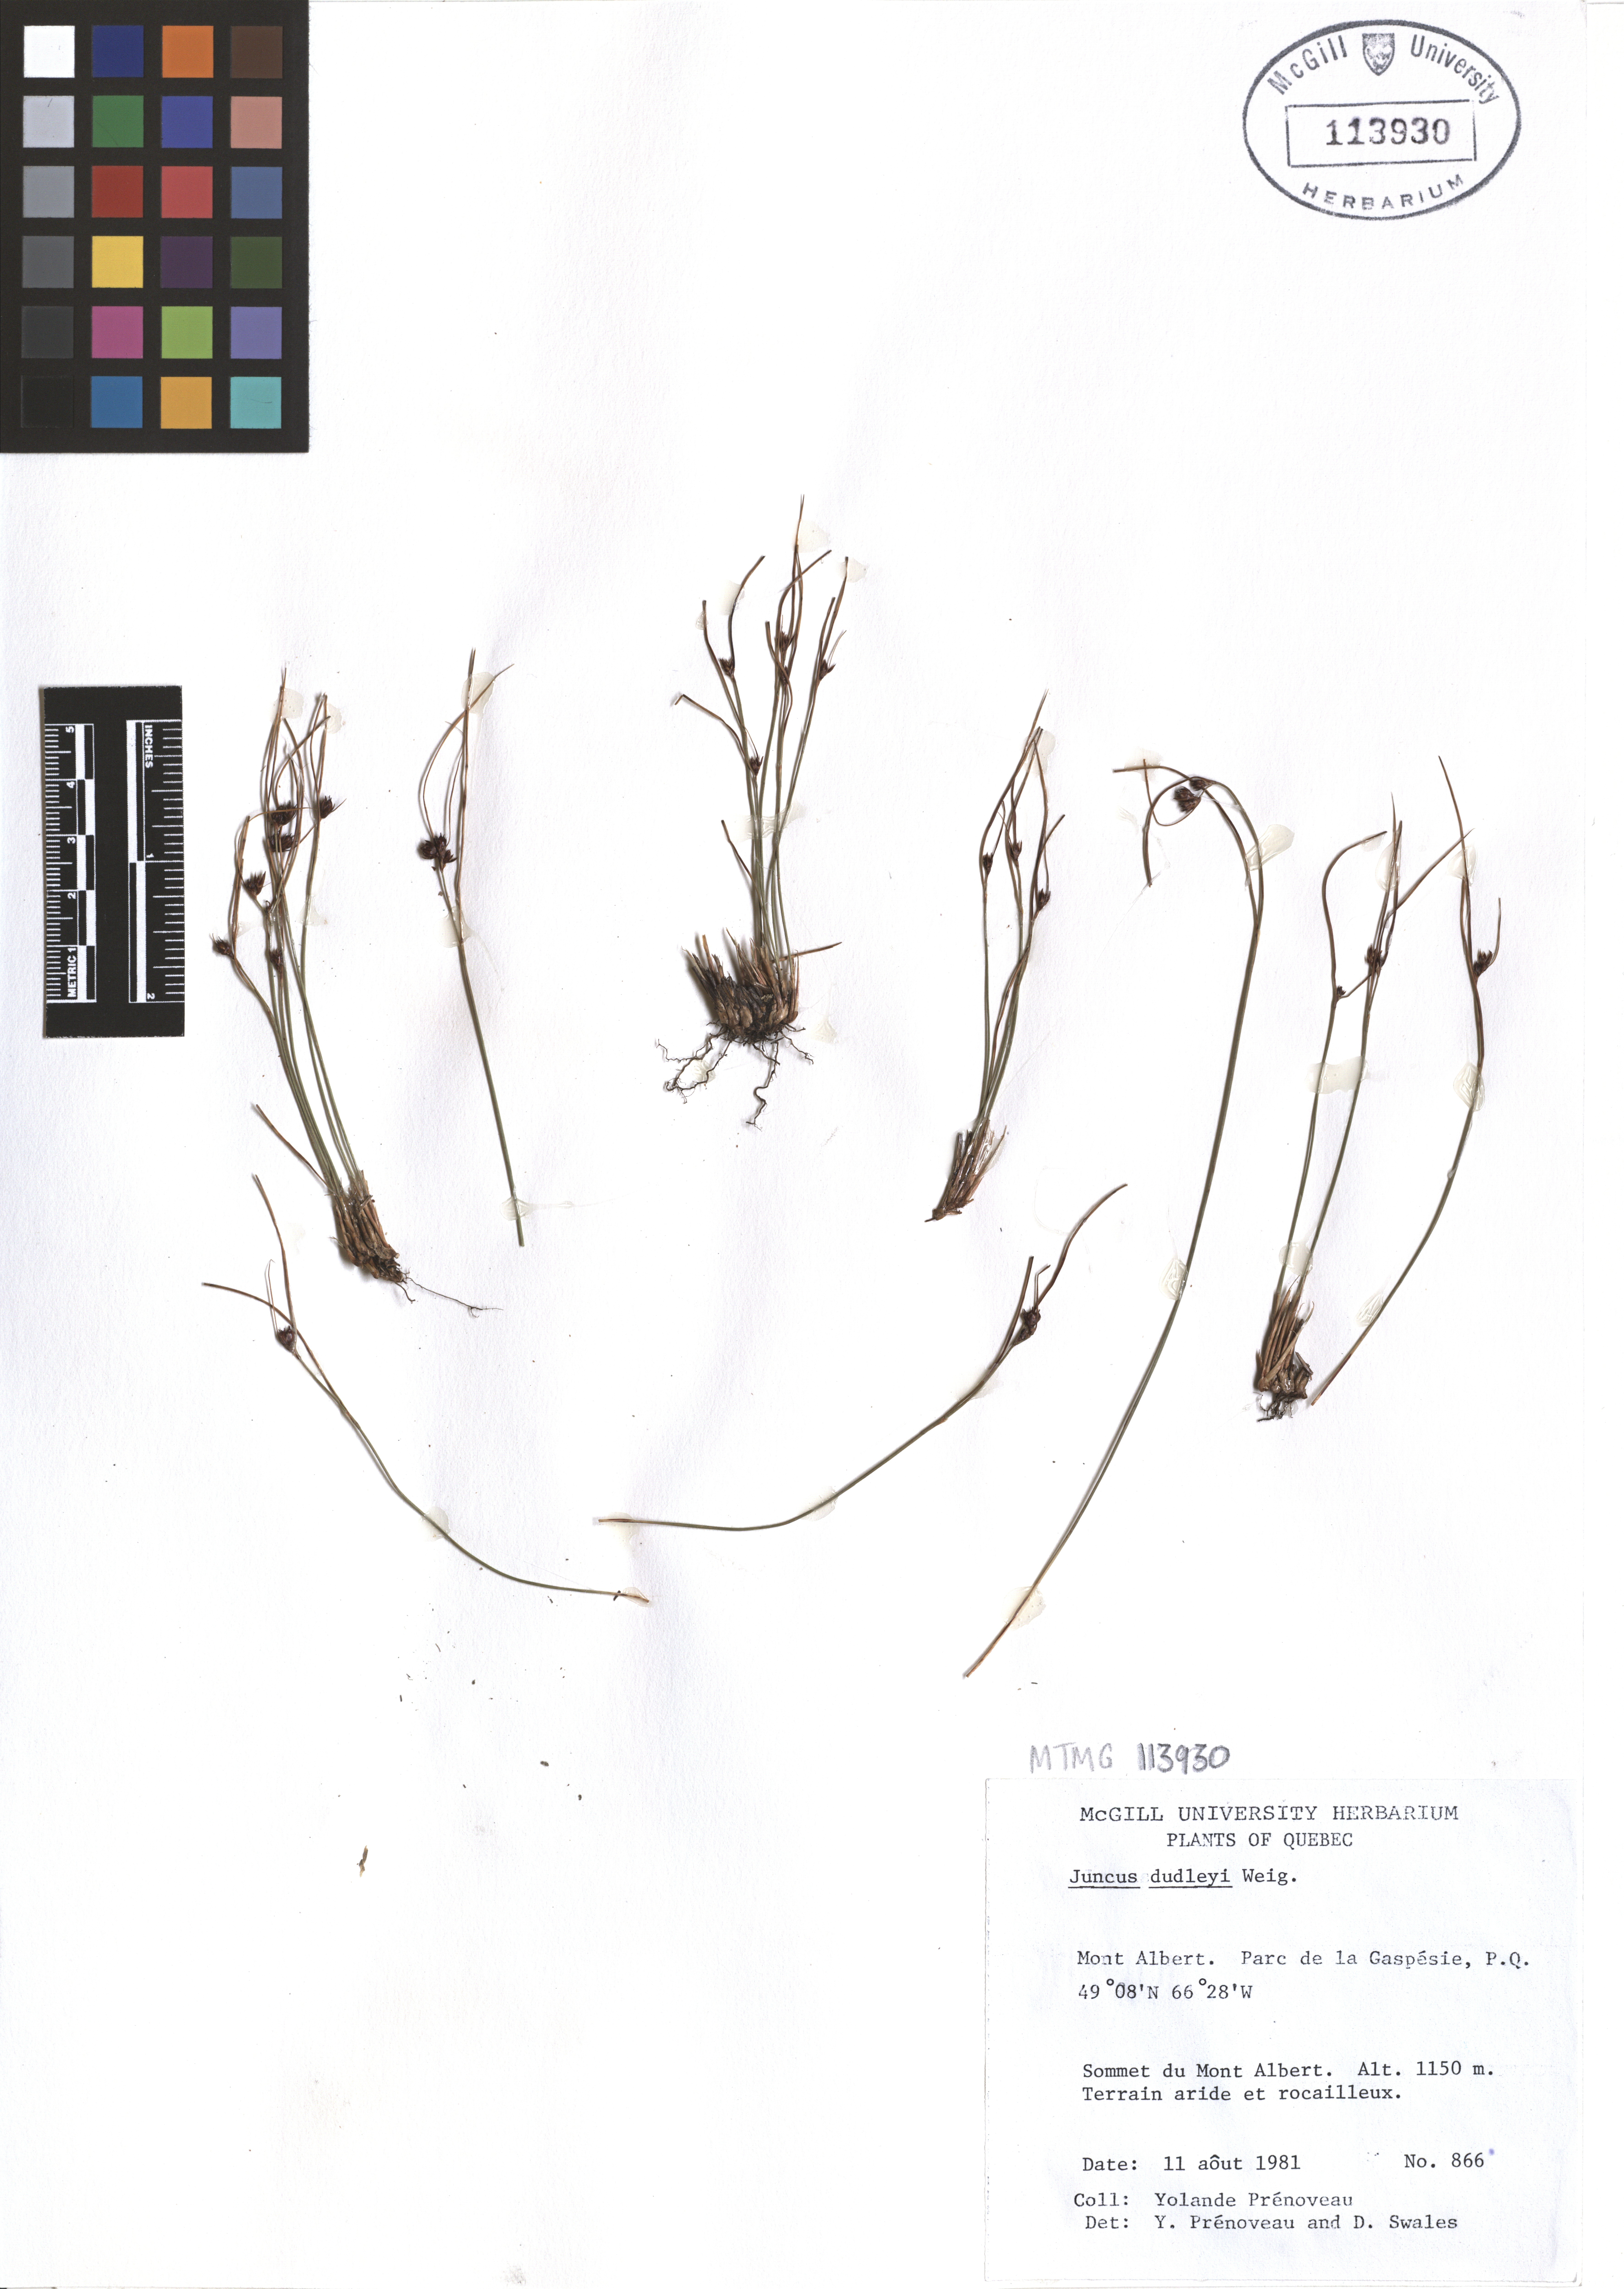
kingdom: Plantae
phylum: Tracheophyta
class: Liliopsida
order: Poales
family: Juncaceae
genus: Juncus
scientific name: Juncus dudleyi
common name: Dudley's rush
